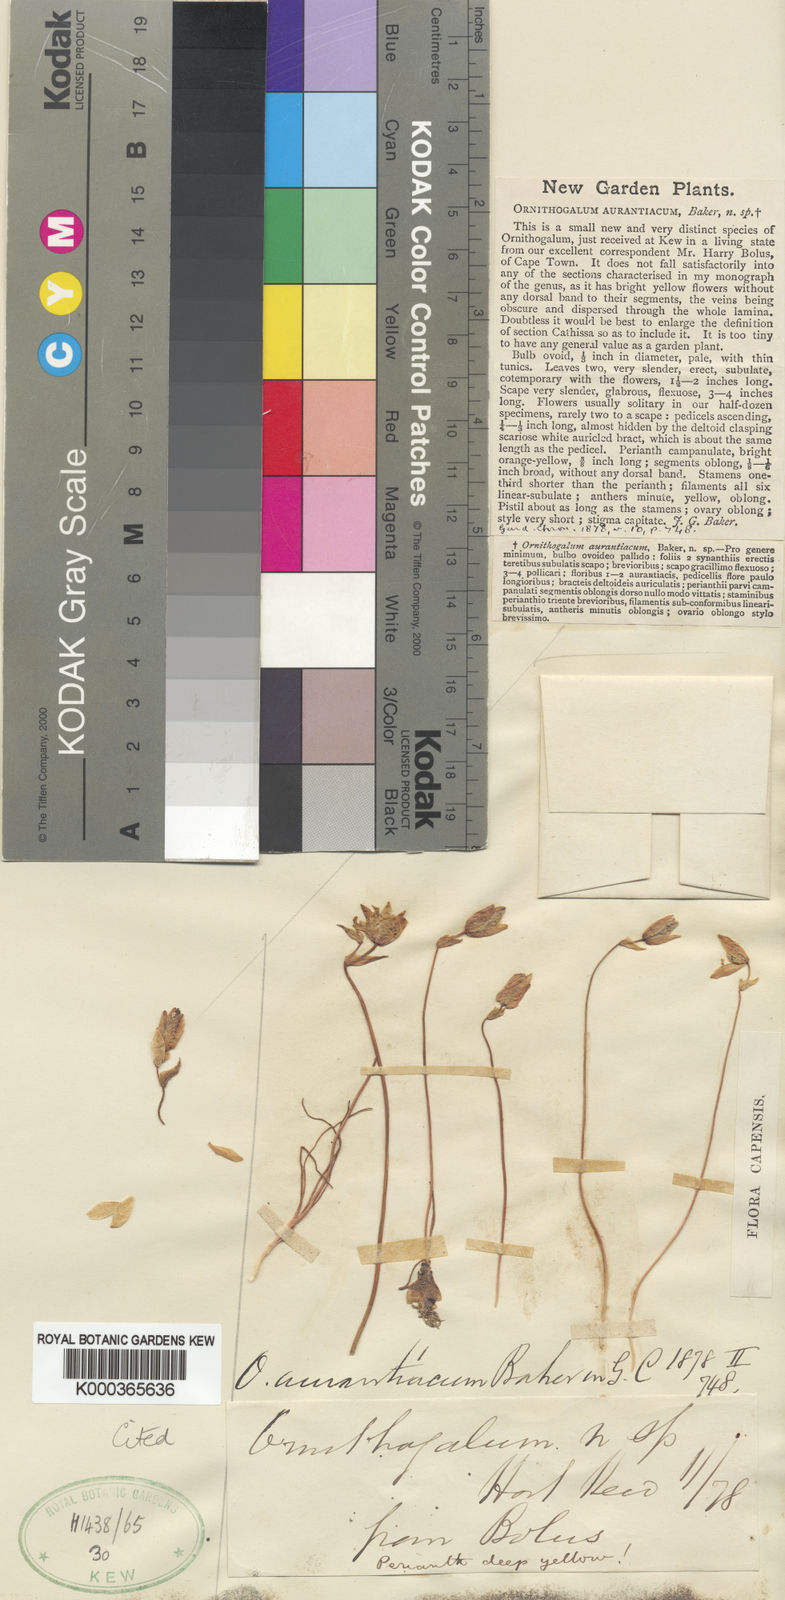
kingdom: Plantae
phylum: Tracheophyta
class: Liliopsida
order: Asparagales
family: Asparagaceae
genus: Ornithogalum
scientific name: Ornithogalum multifolium
